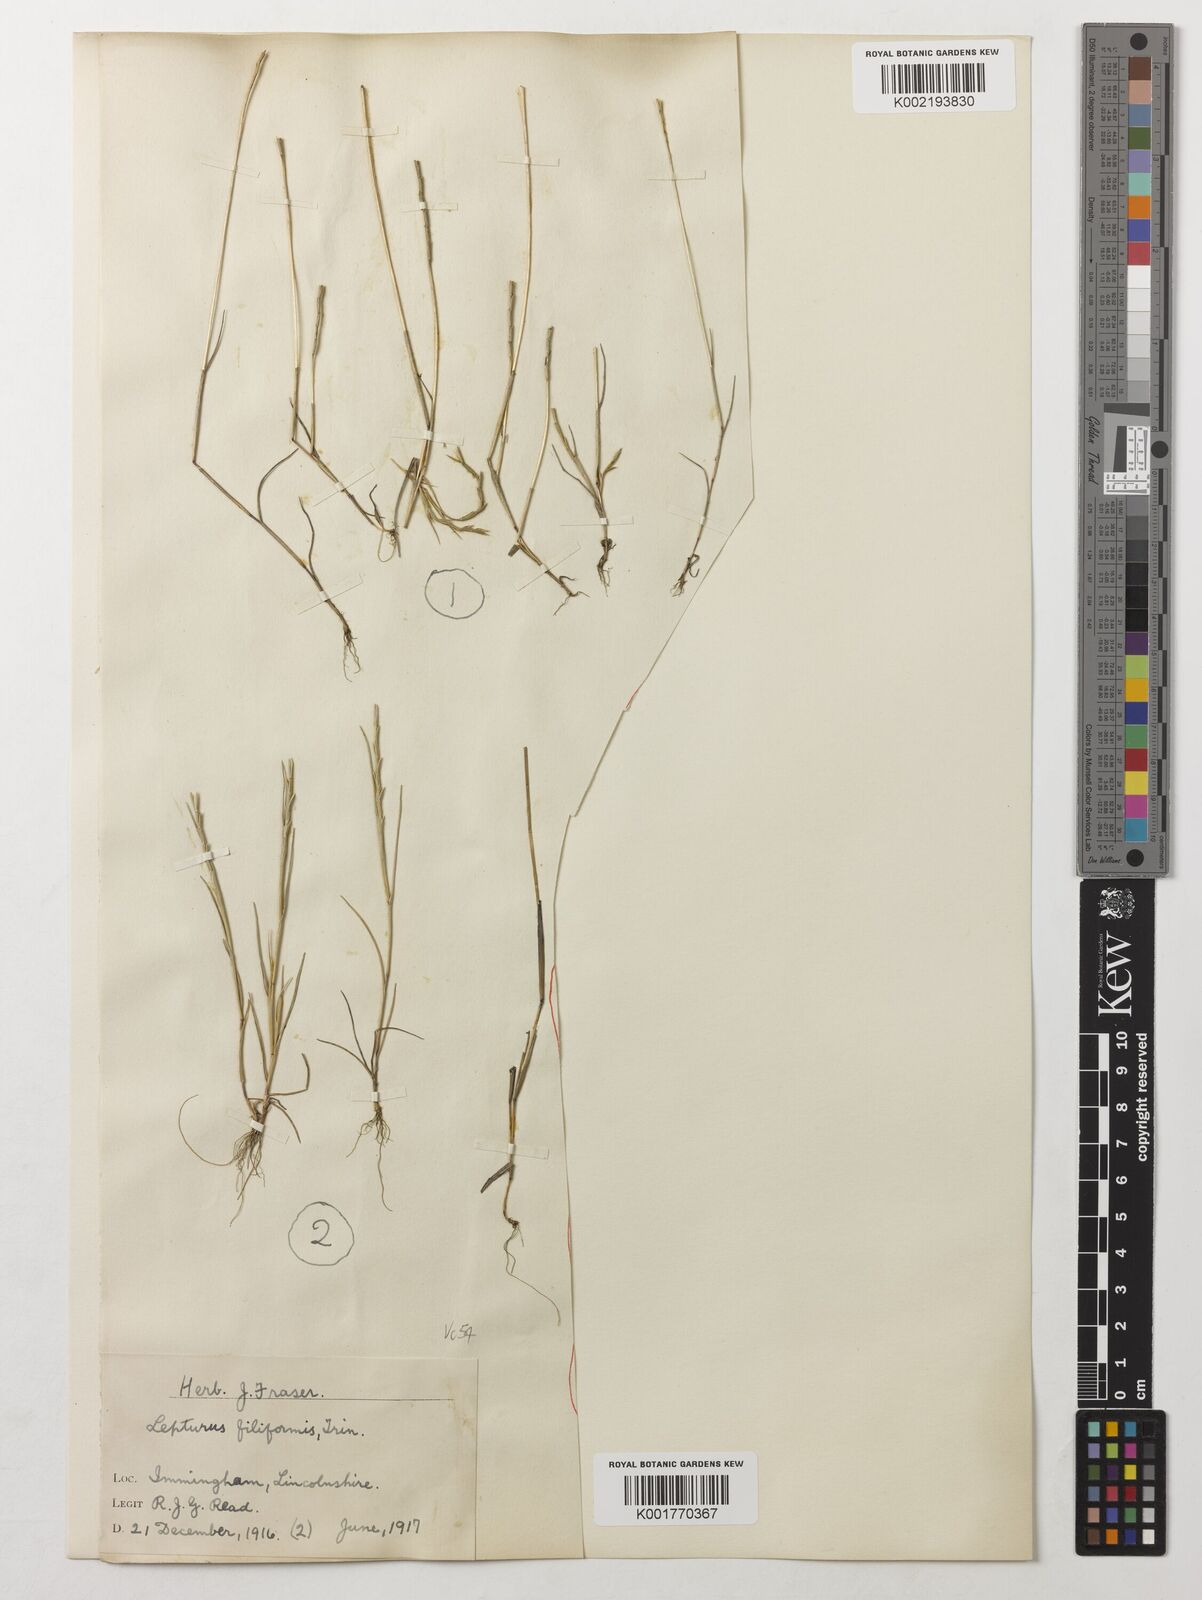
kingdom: Plantae
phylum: Tracheophyta
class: Liliopsida
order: Poales
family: Poaceae
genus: Parapholis
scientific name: Parapholis strigosa
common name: Hard-grass
